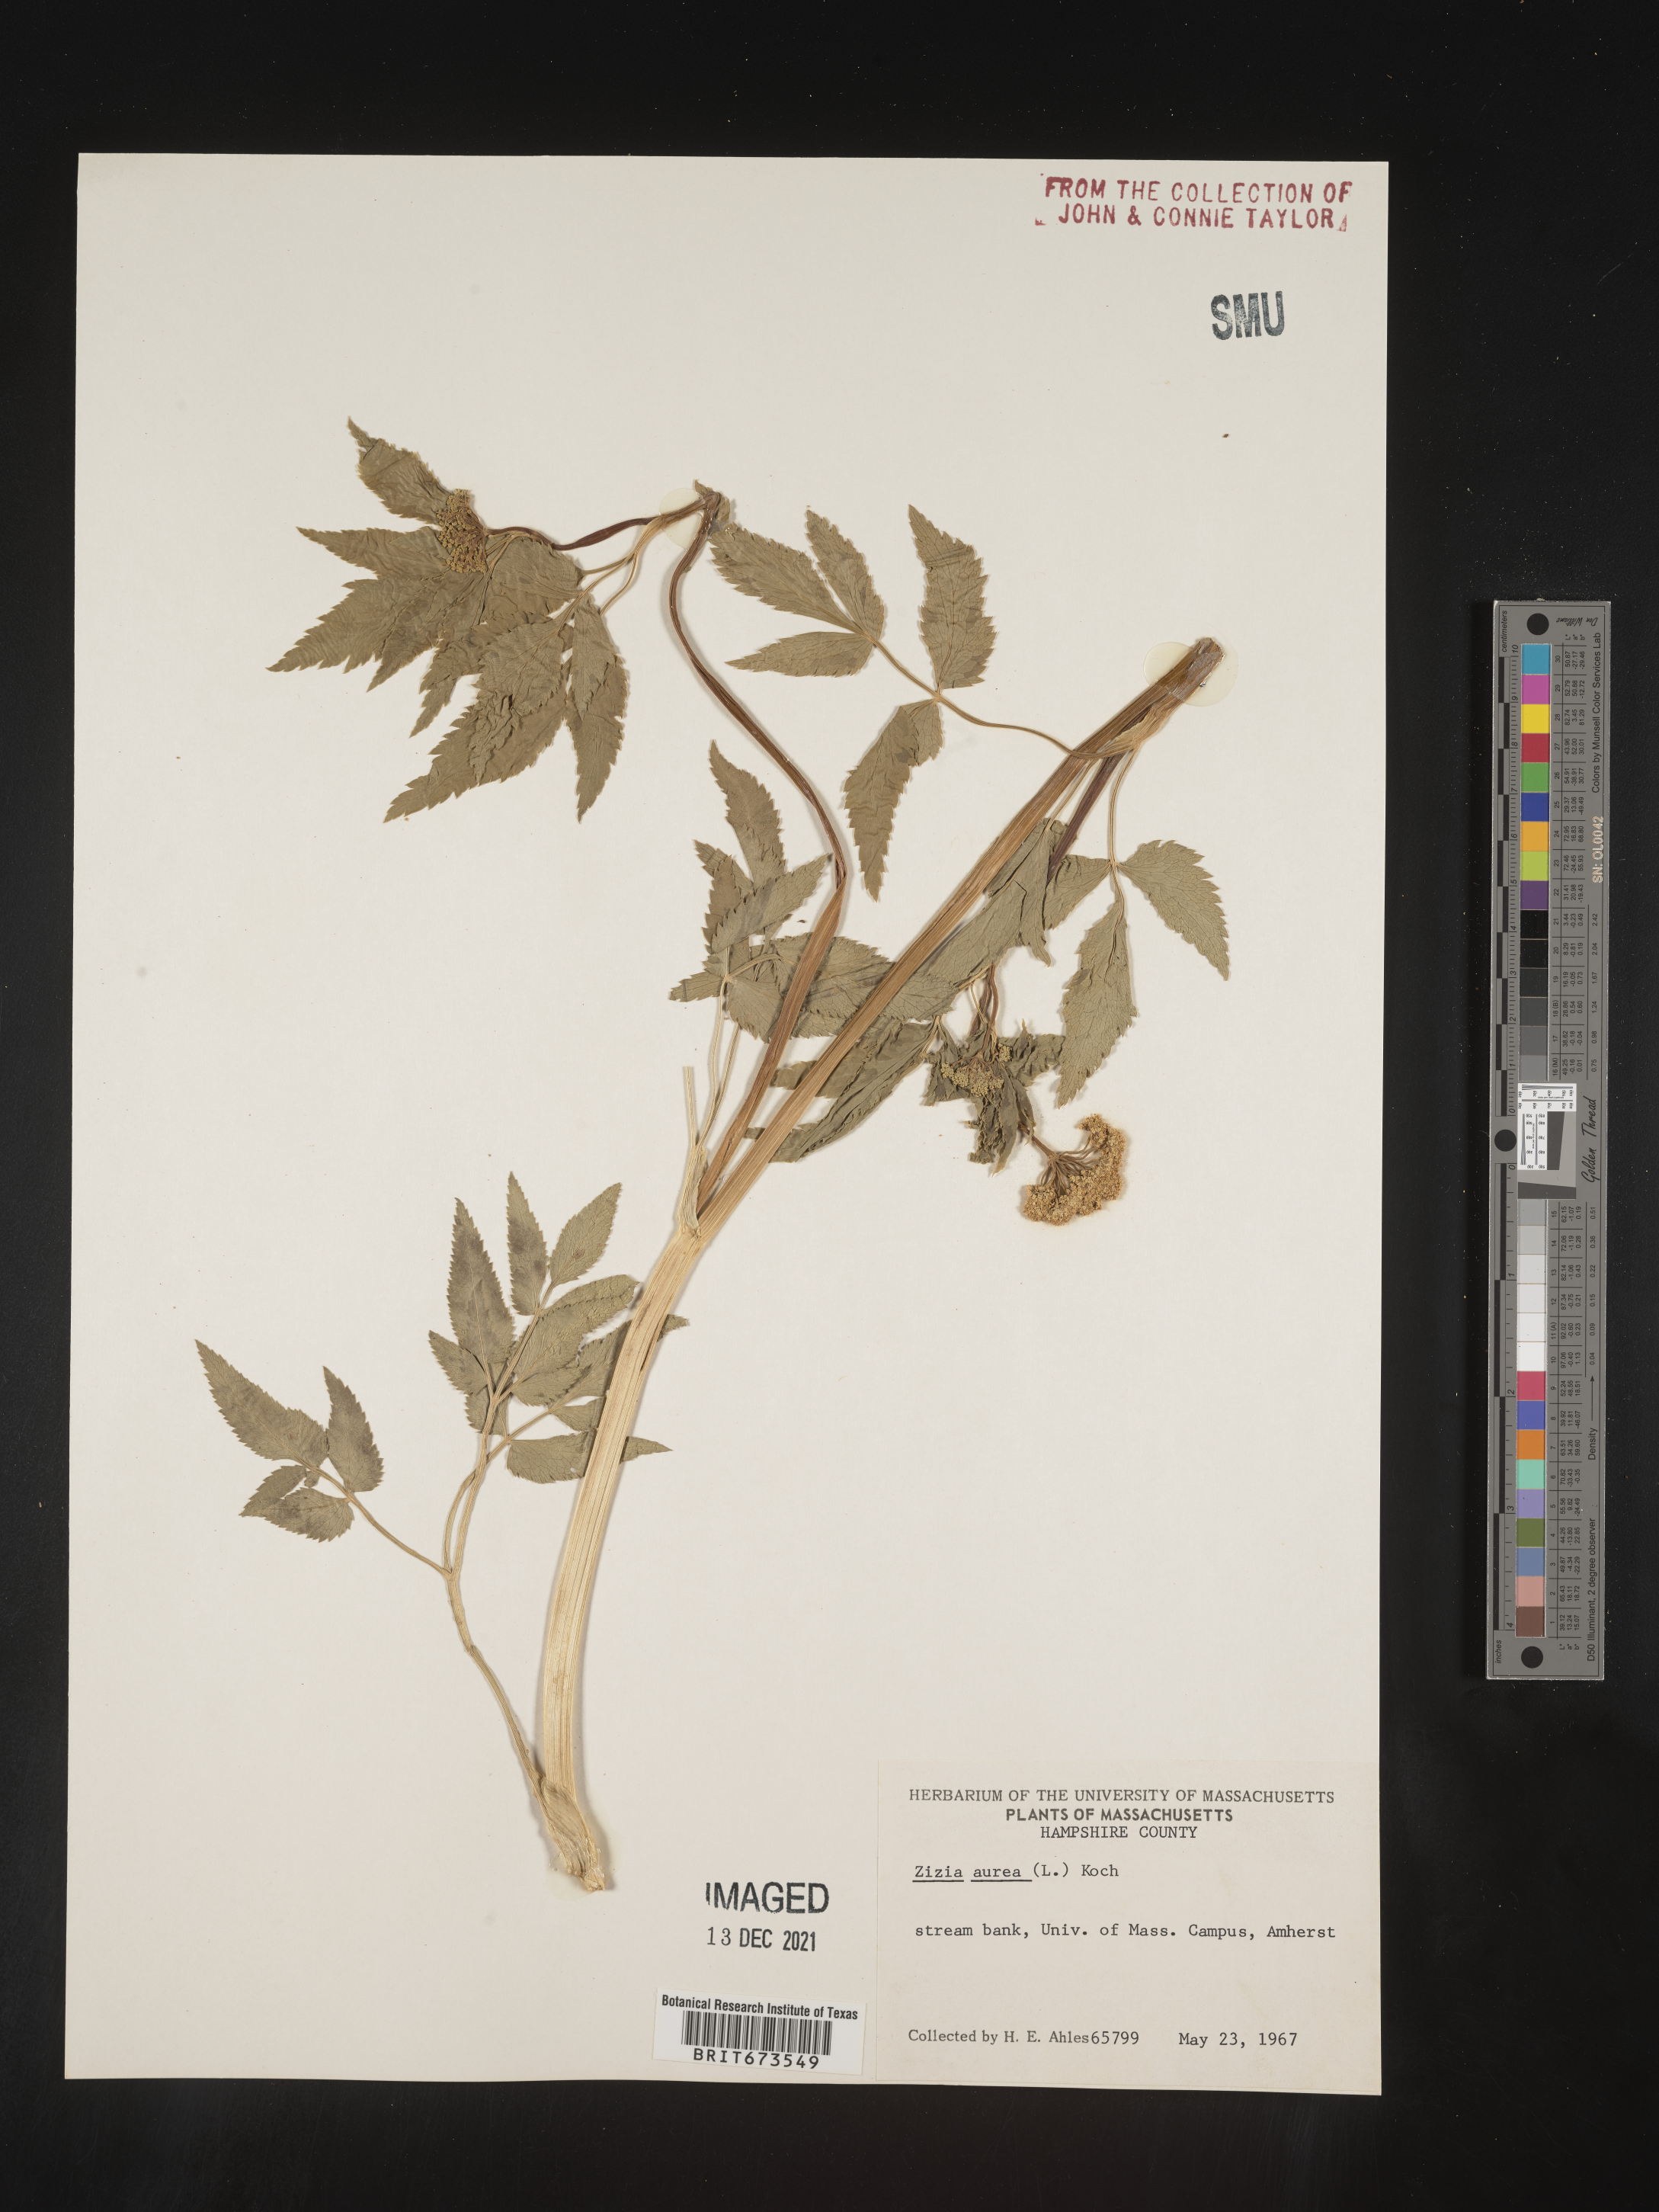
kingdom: Plantae
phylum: Tracheophyta
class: Magnoliopsida
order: Apiales
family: Apiaceae
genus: Zizia
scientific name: Zizia aurea
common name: Golden alexanders
